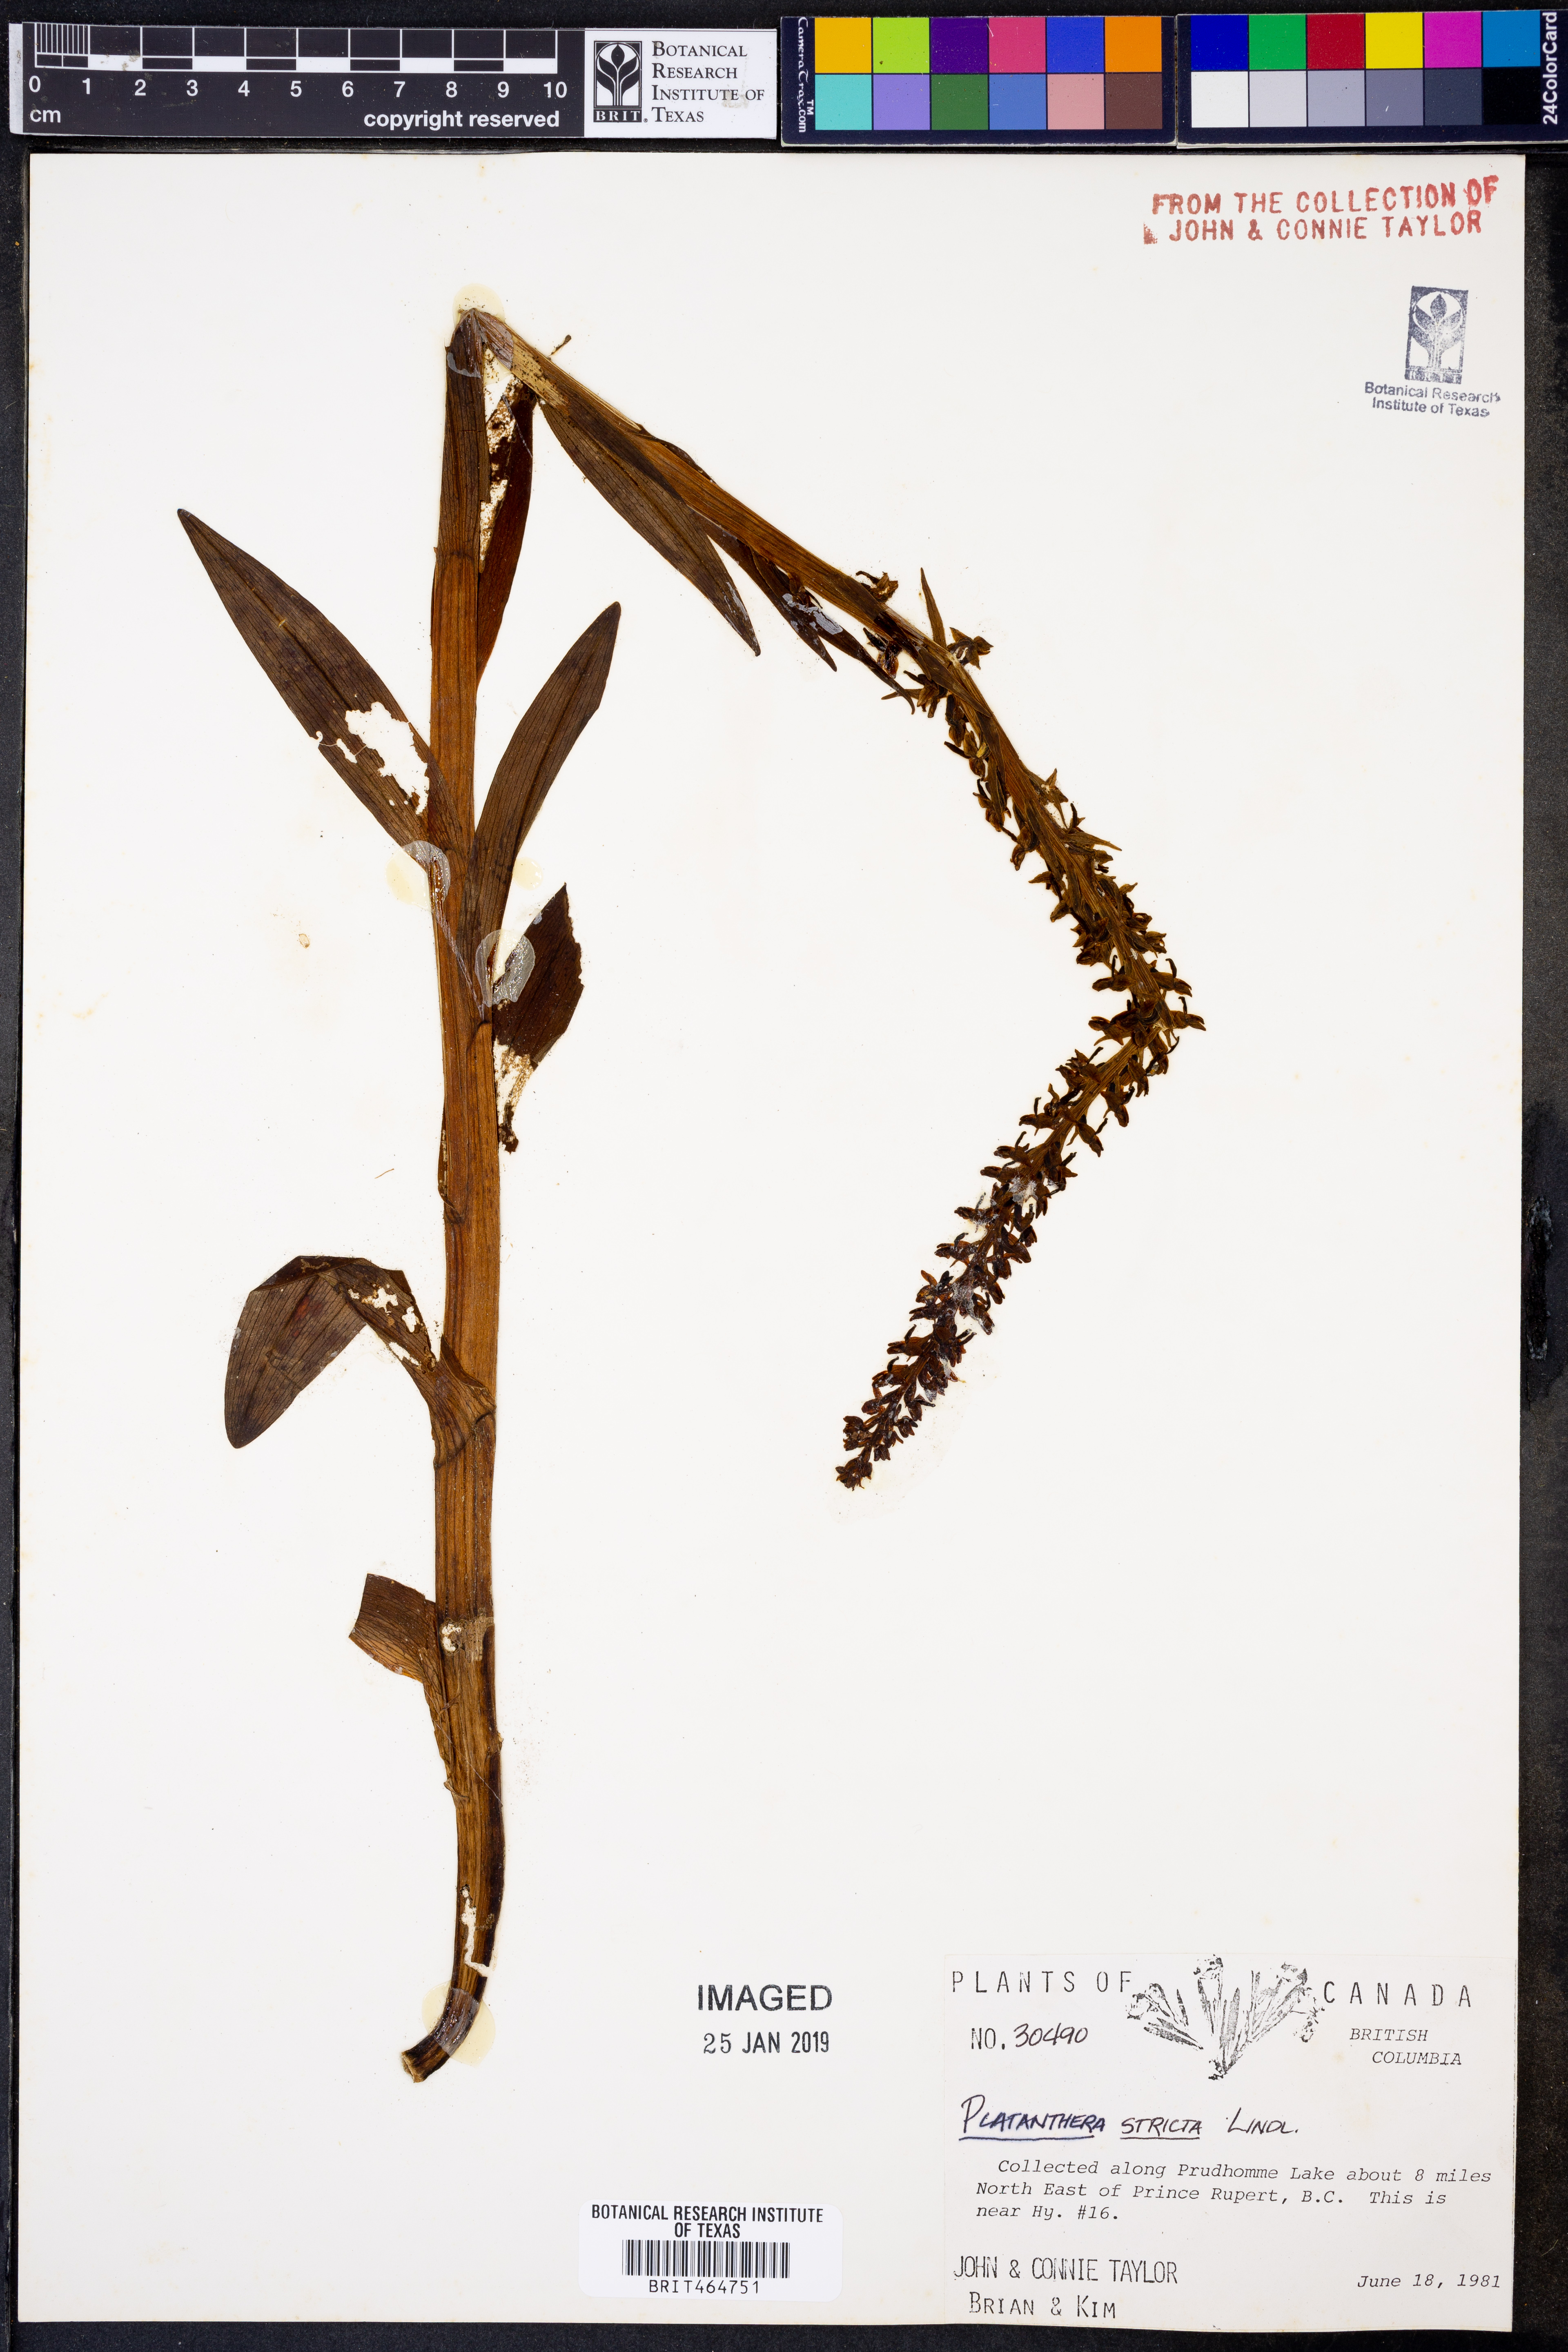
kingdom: Plantae
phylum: Tracheophyta
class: Liliopsida
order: Asparagales
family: Orchidaceae
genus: Platanthera
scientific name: Platanthera stricta
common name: Slender bog orchid
